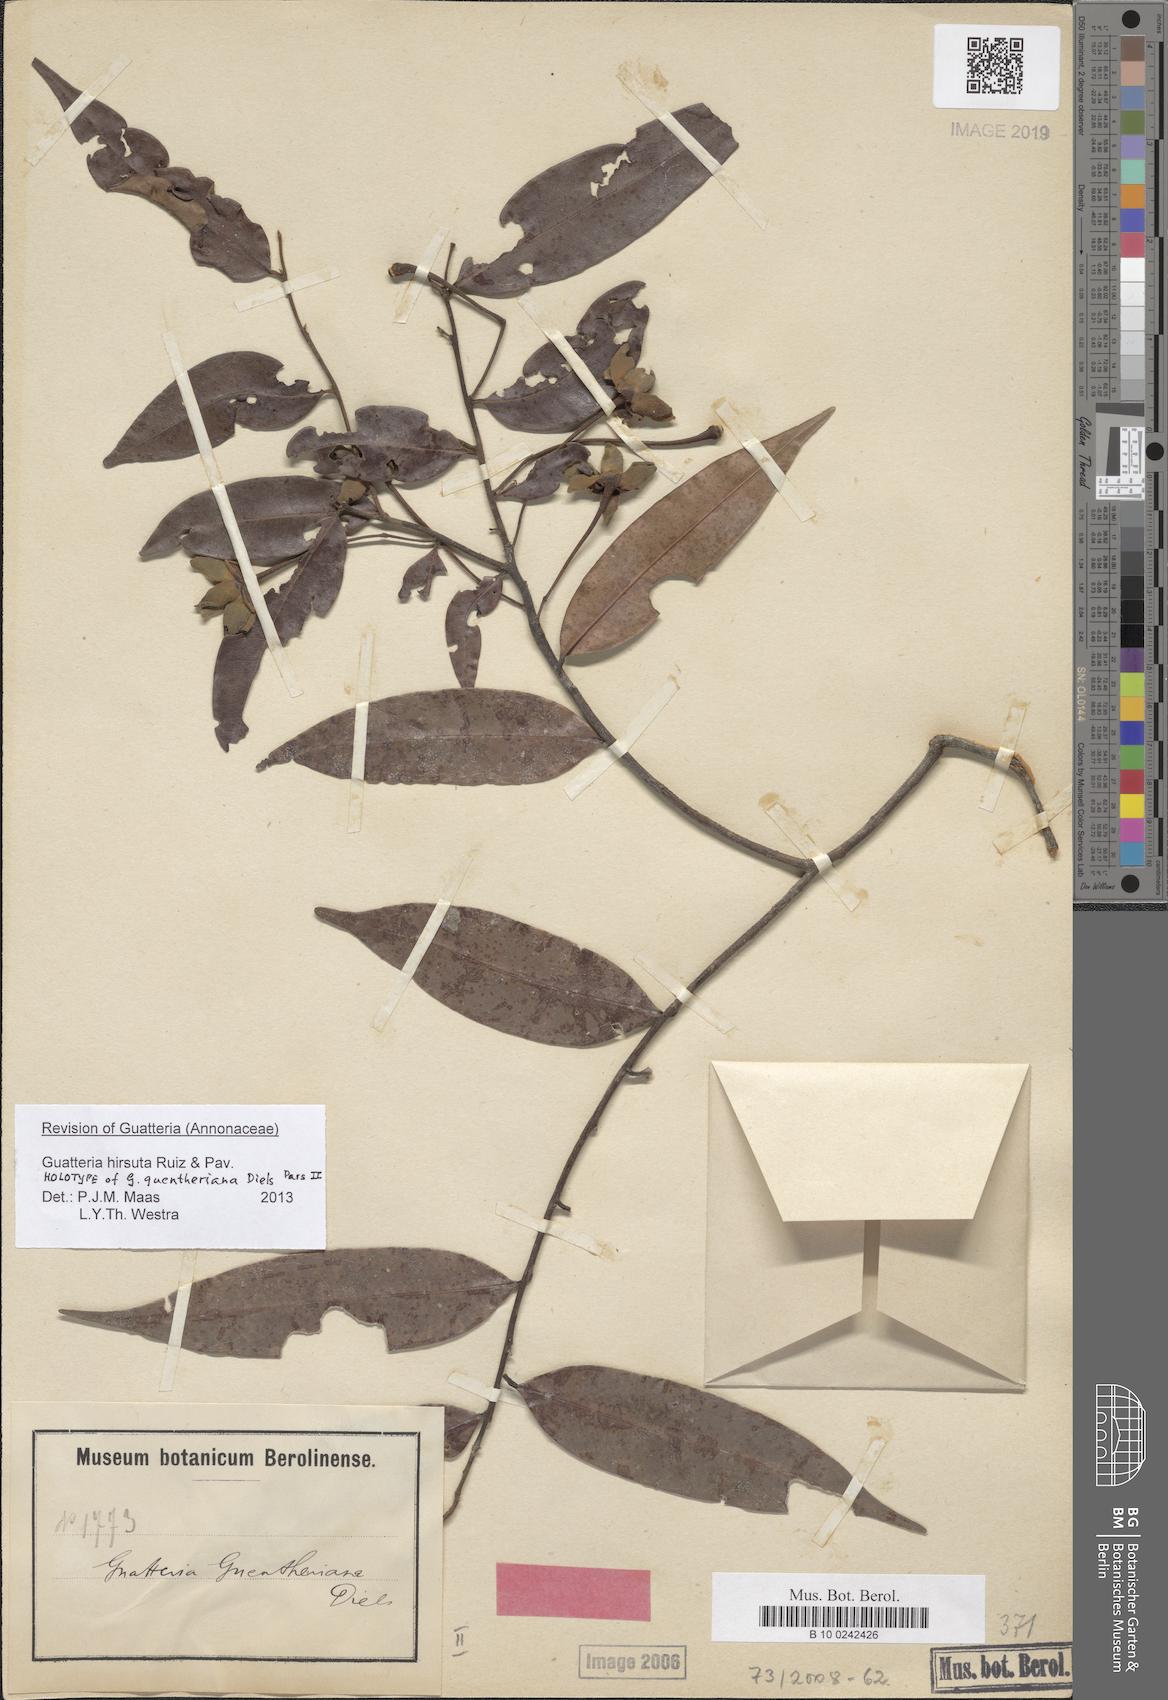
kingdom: Plantae
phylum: Tracheophyta
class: Magnoliopsida
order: Magnoliales
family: Annonaceae
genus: Guatteria
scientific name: Guatteria hirsuta
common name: Laurel
